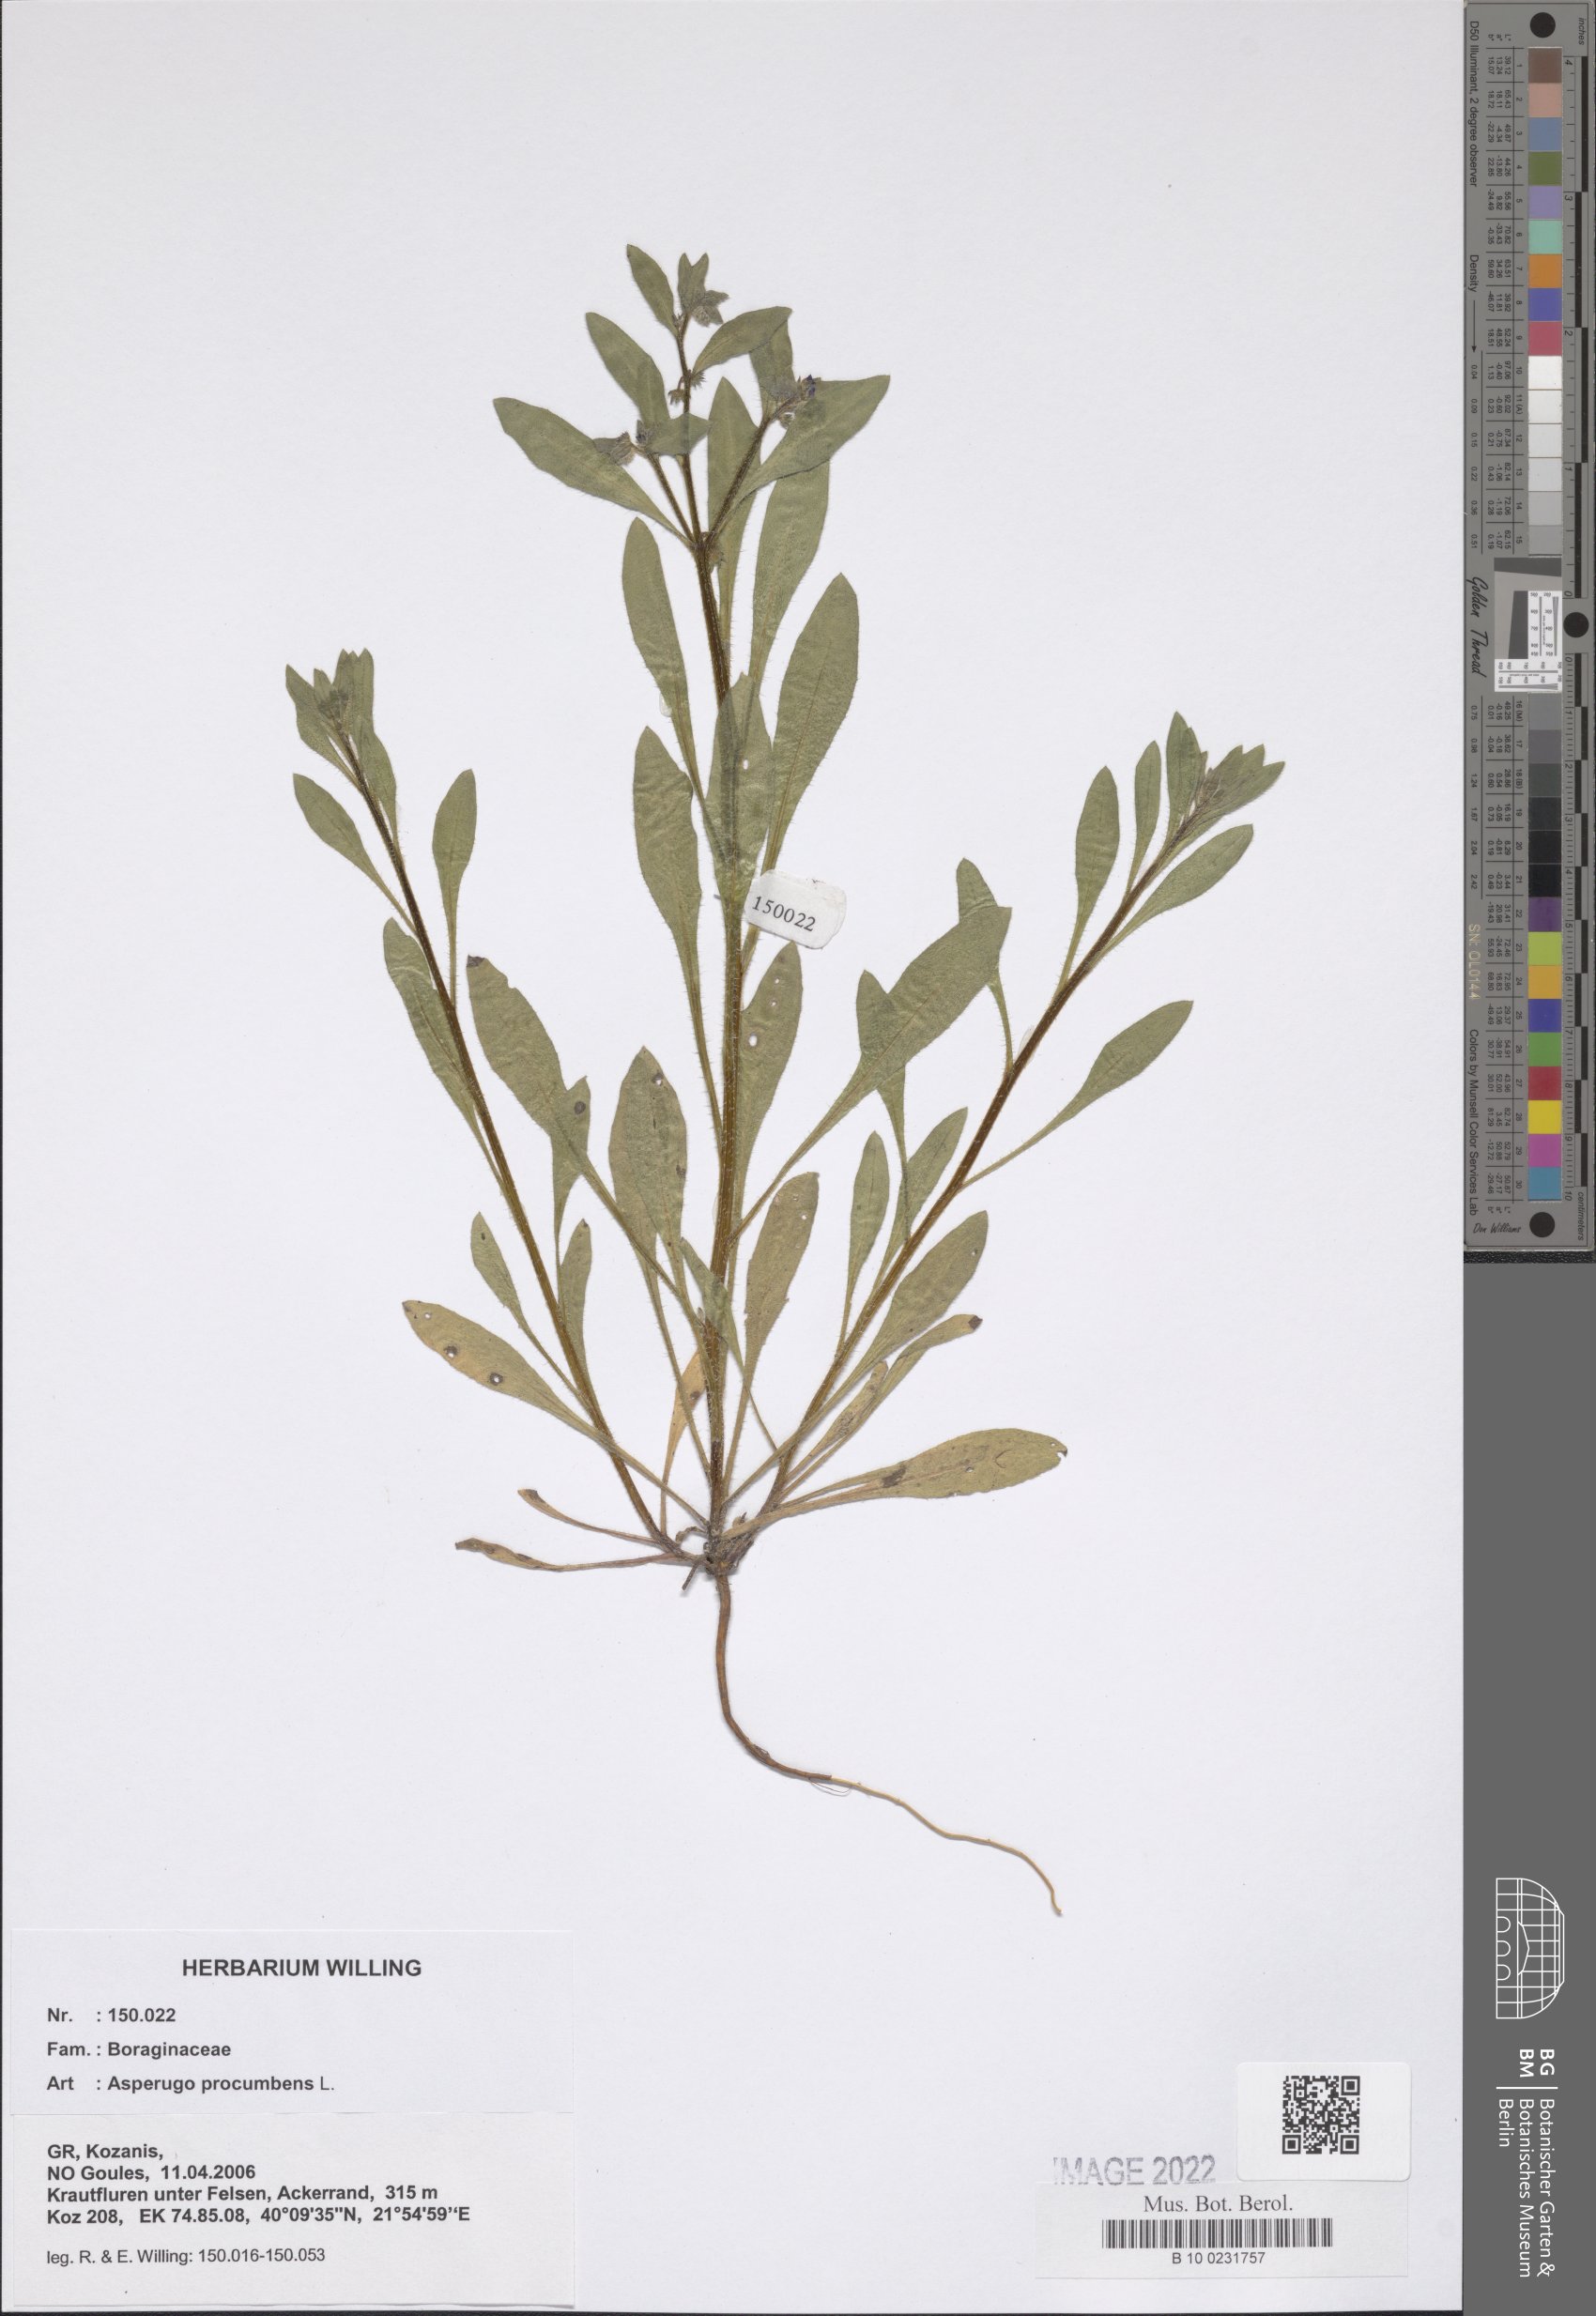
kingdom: Plantae
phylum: Tracheophyta
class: Magnoliopsida
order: Boraginales
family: Boraginaceae
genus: Asperugo
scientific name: Asperugo procumbens
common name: Madwort
